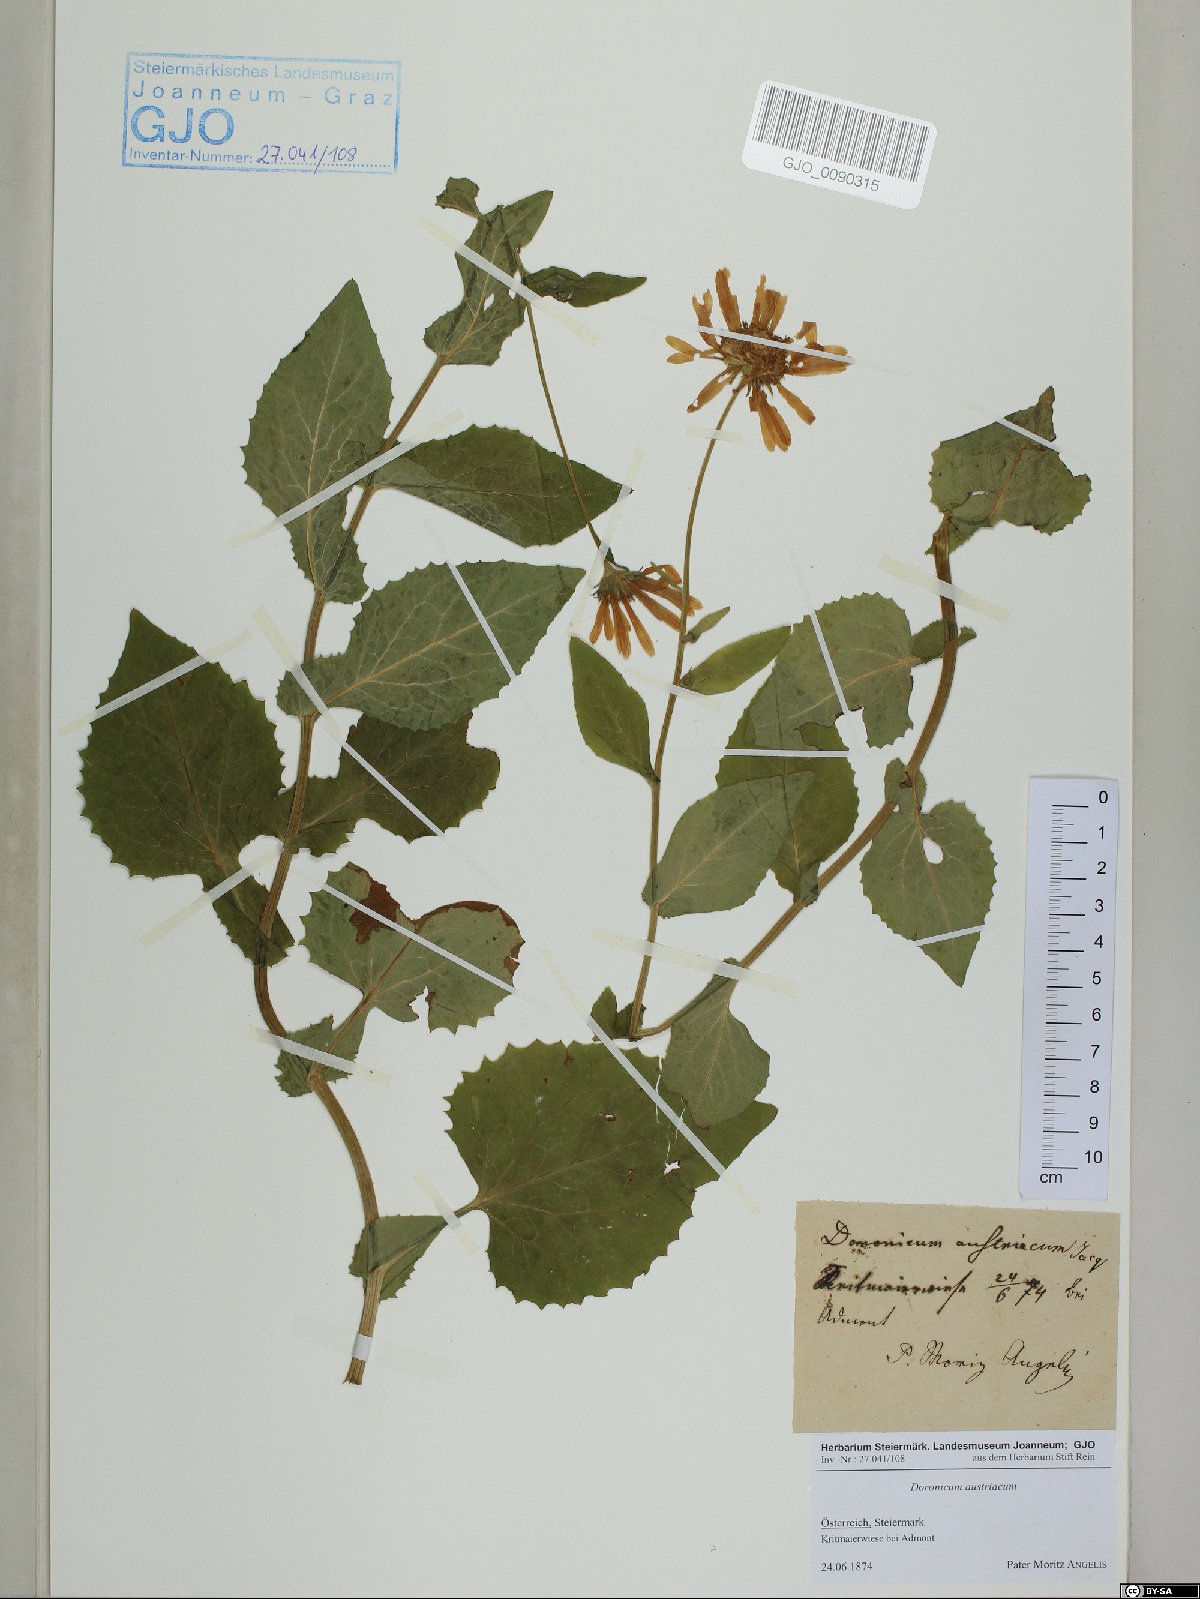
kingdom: Plantae
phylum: Tracheophyta
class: Magnoliopsida
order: Asterales
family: Asteraceae
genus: Doronicum
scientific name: Doronicum austriacum
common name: Austrian leopard's-bane
